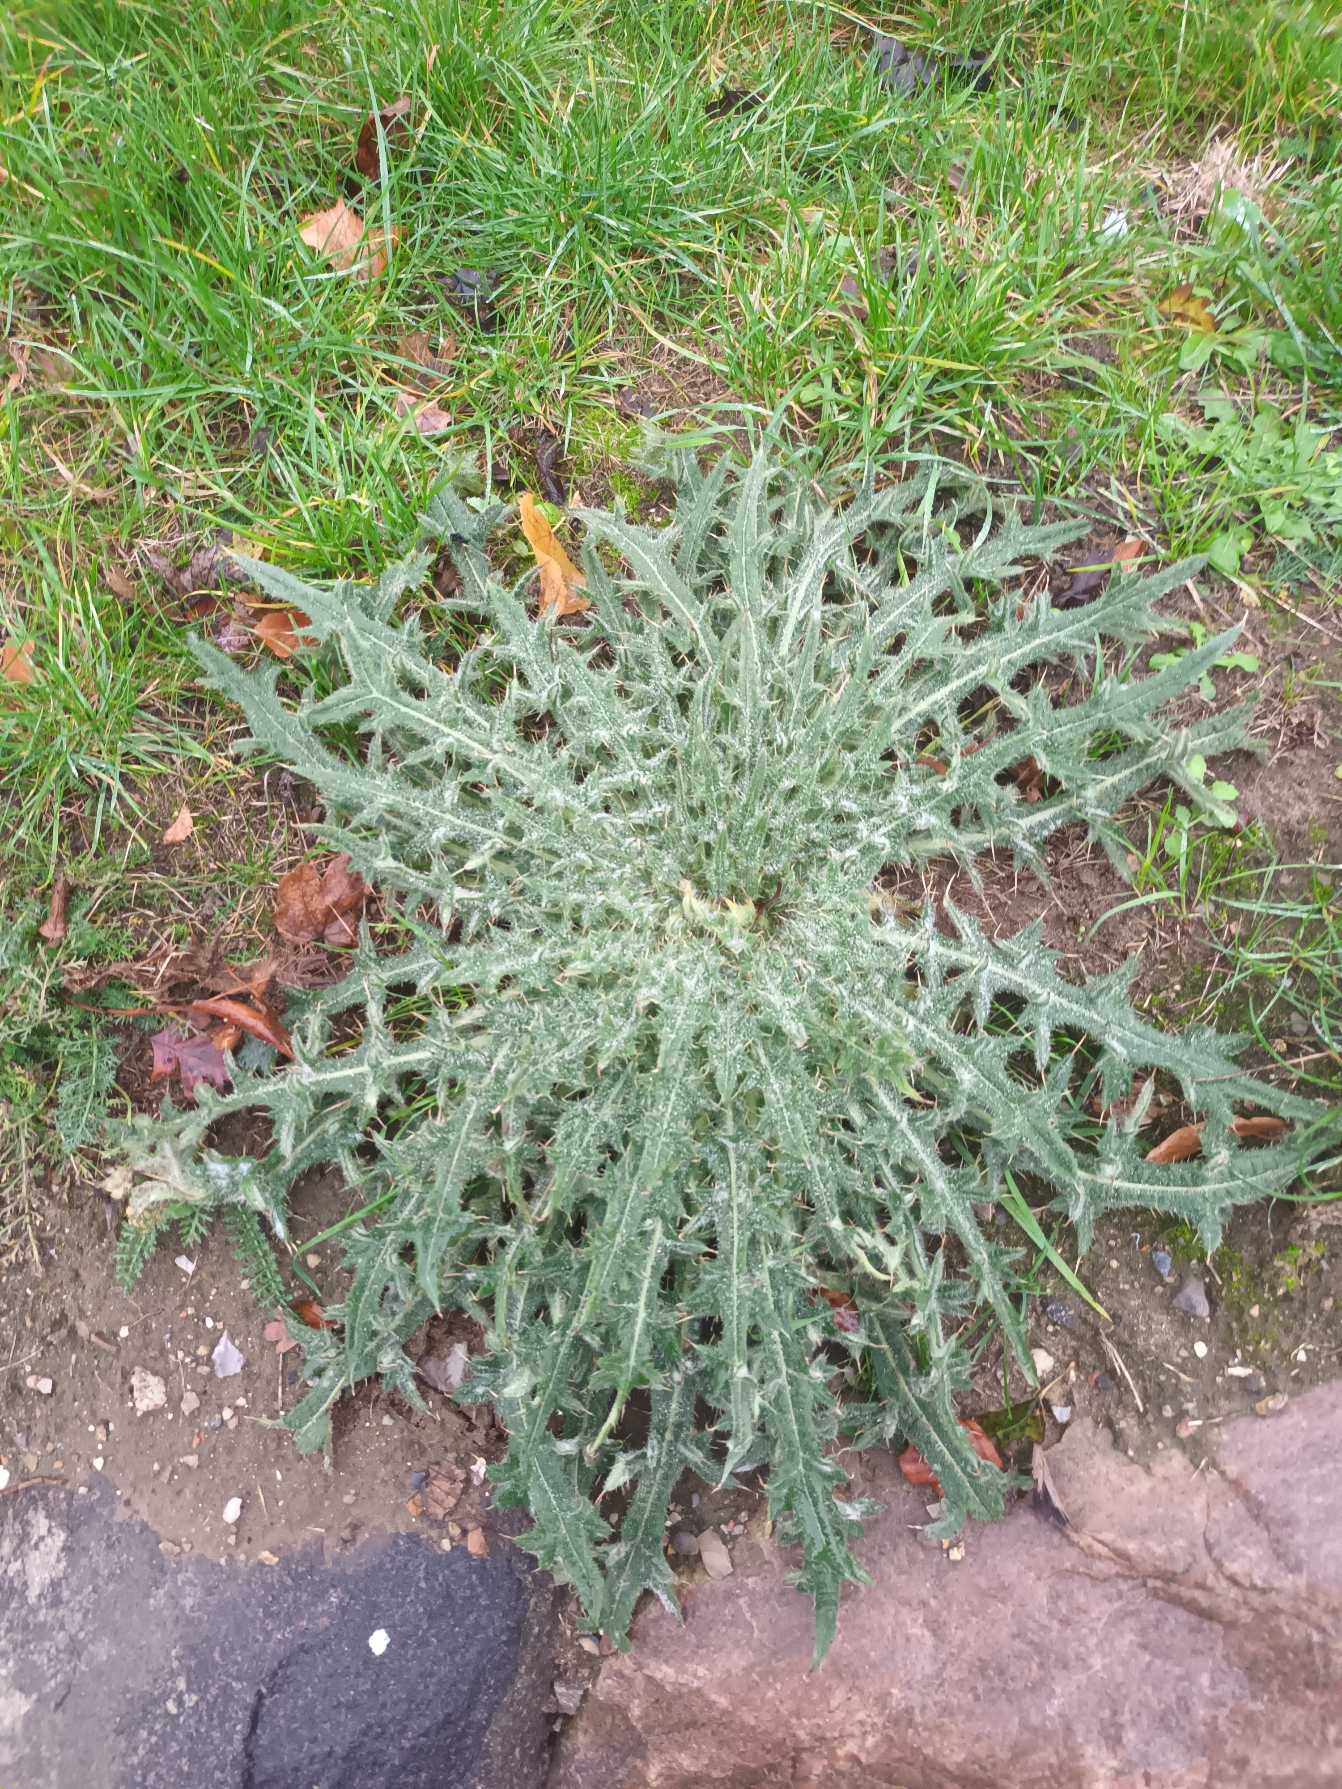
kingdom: Plantae
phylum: Tracheophyta
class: Magnoliopsida
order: Asterales
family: Asteraceae
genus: Cirsium
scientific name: Cirsium vulgare
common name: Horse-tidsel
